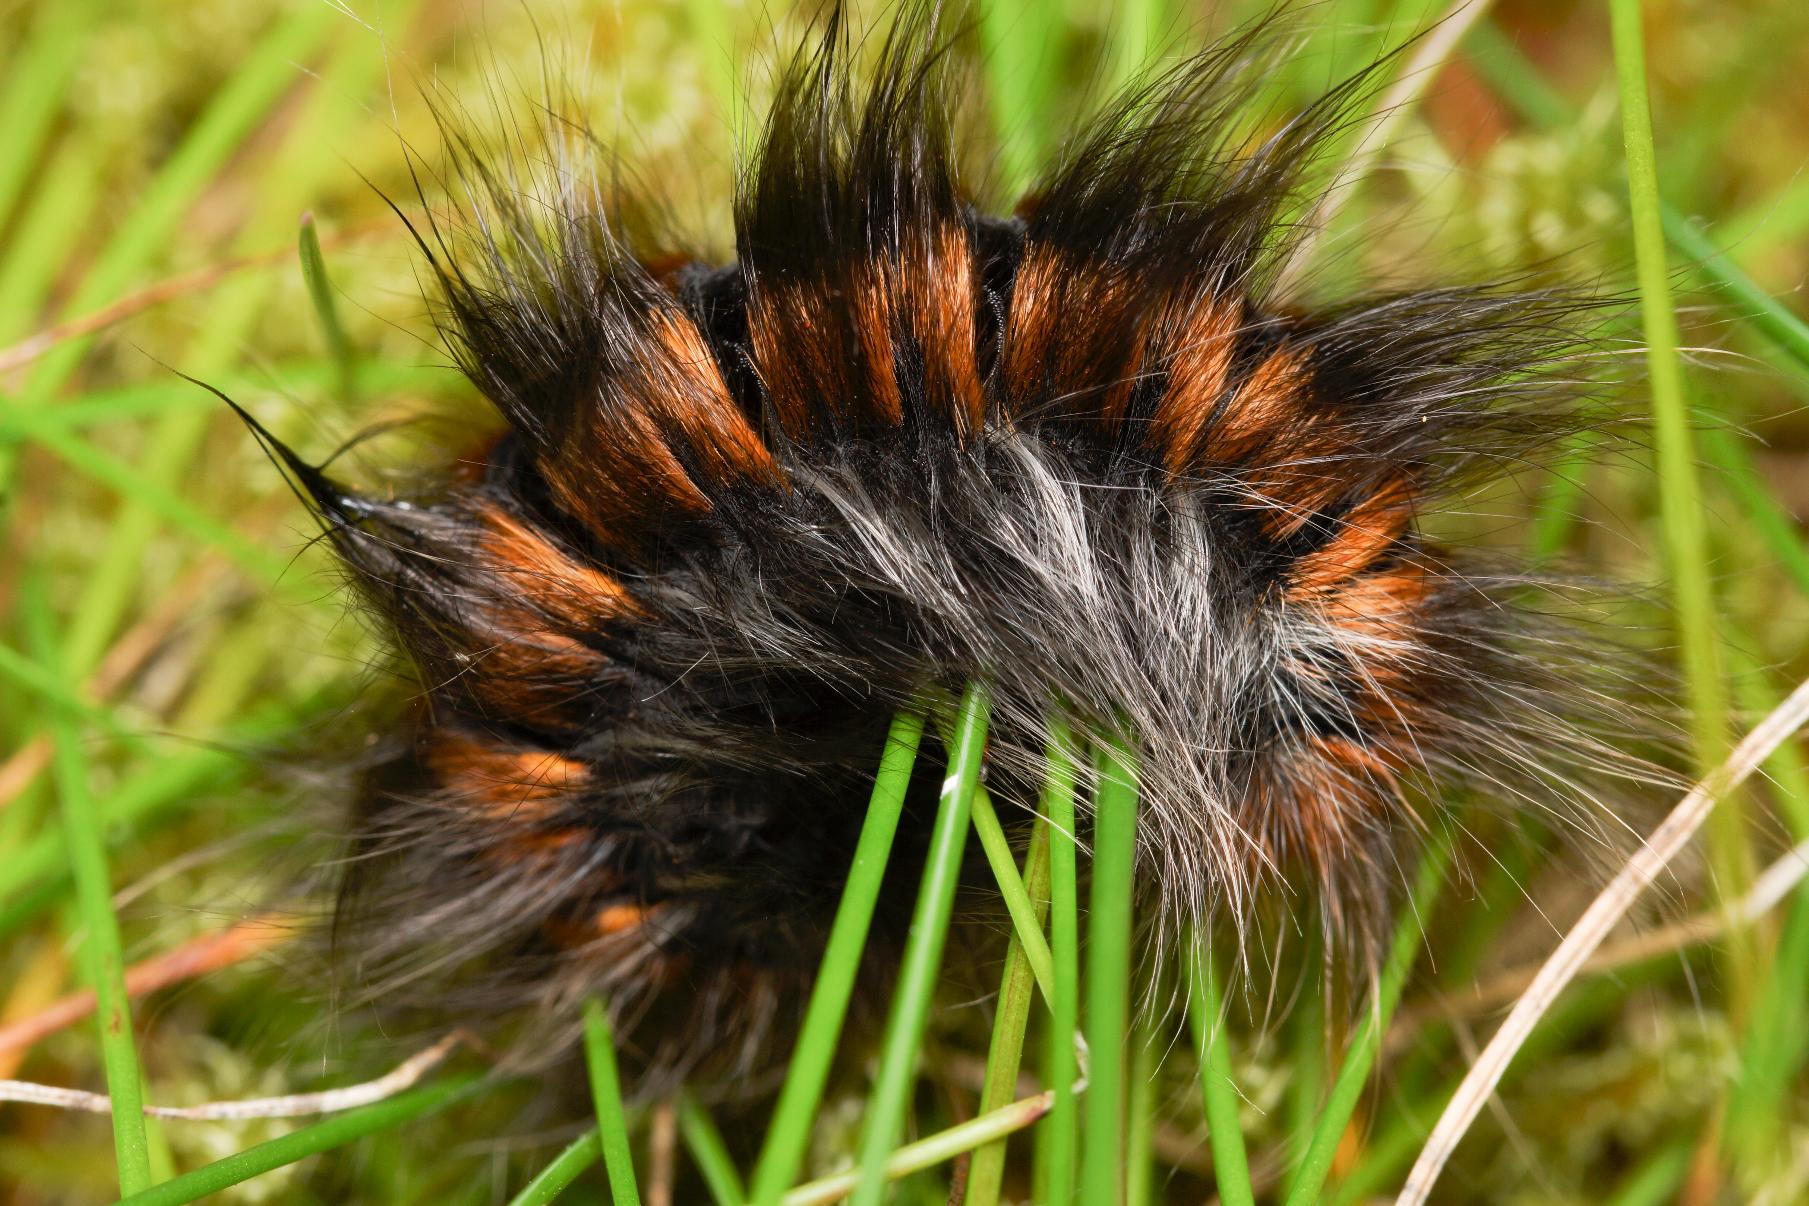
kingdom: Animalia
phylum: Arthropoda
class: Insecta
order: Lepidoptera
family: Lasiocampidae
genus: Macrothylacia
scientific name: Macrothylacia rubi
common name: Brombærspinder
